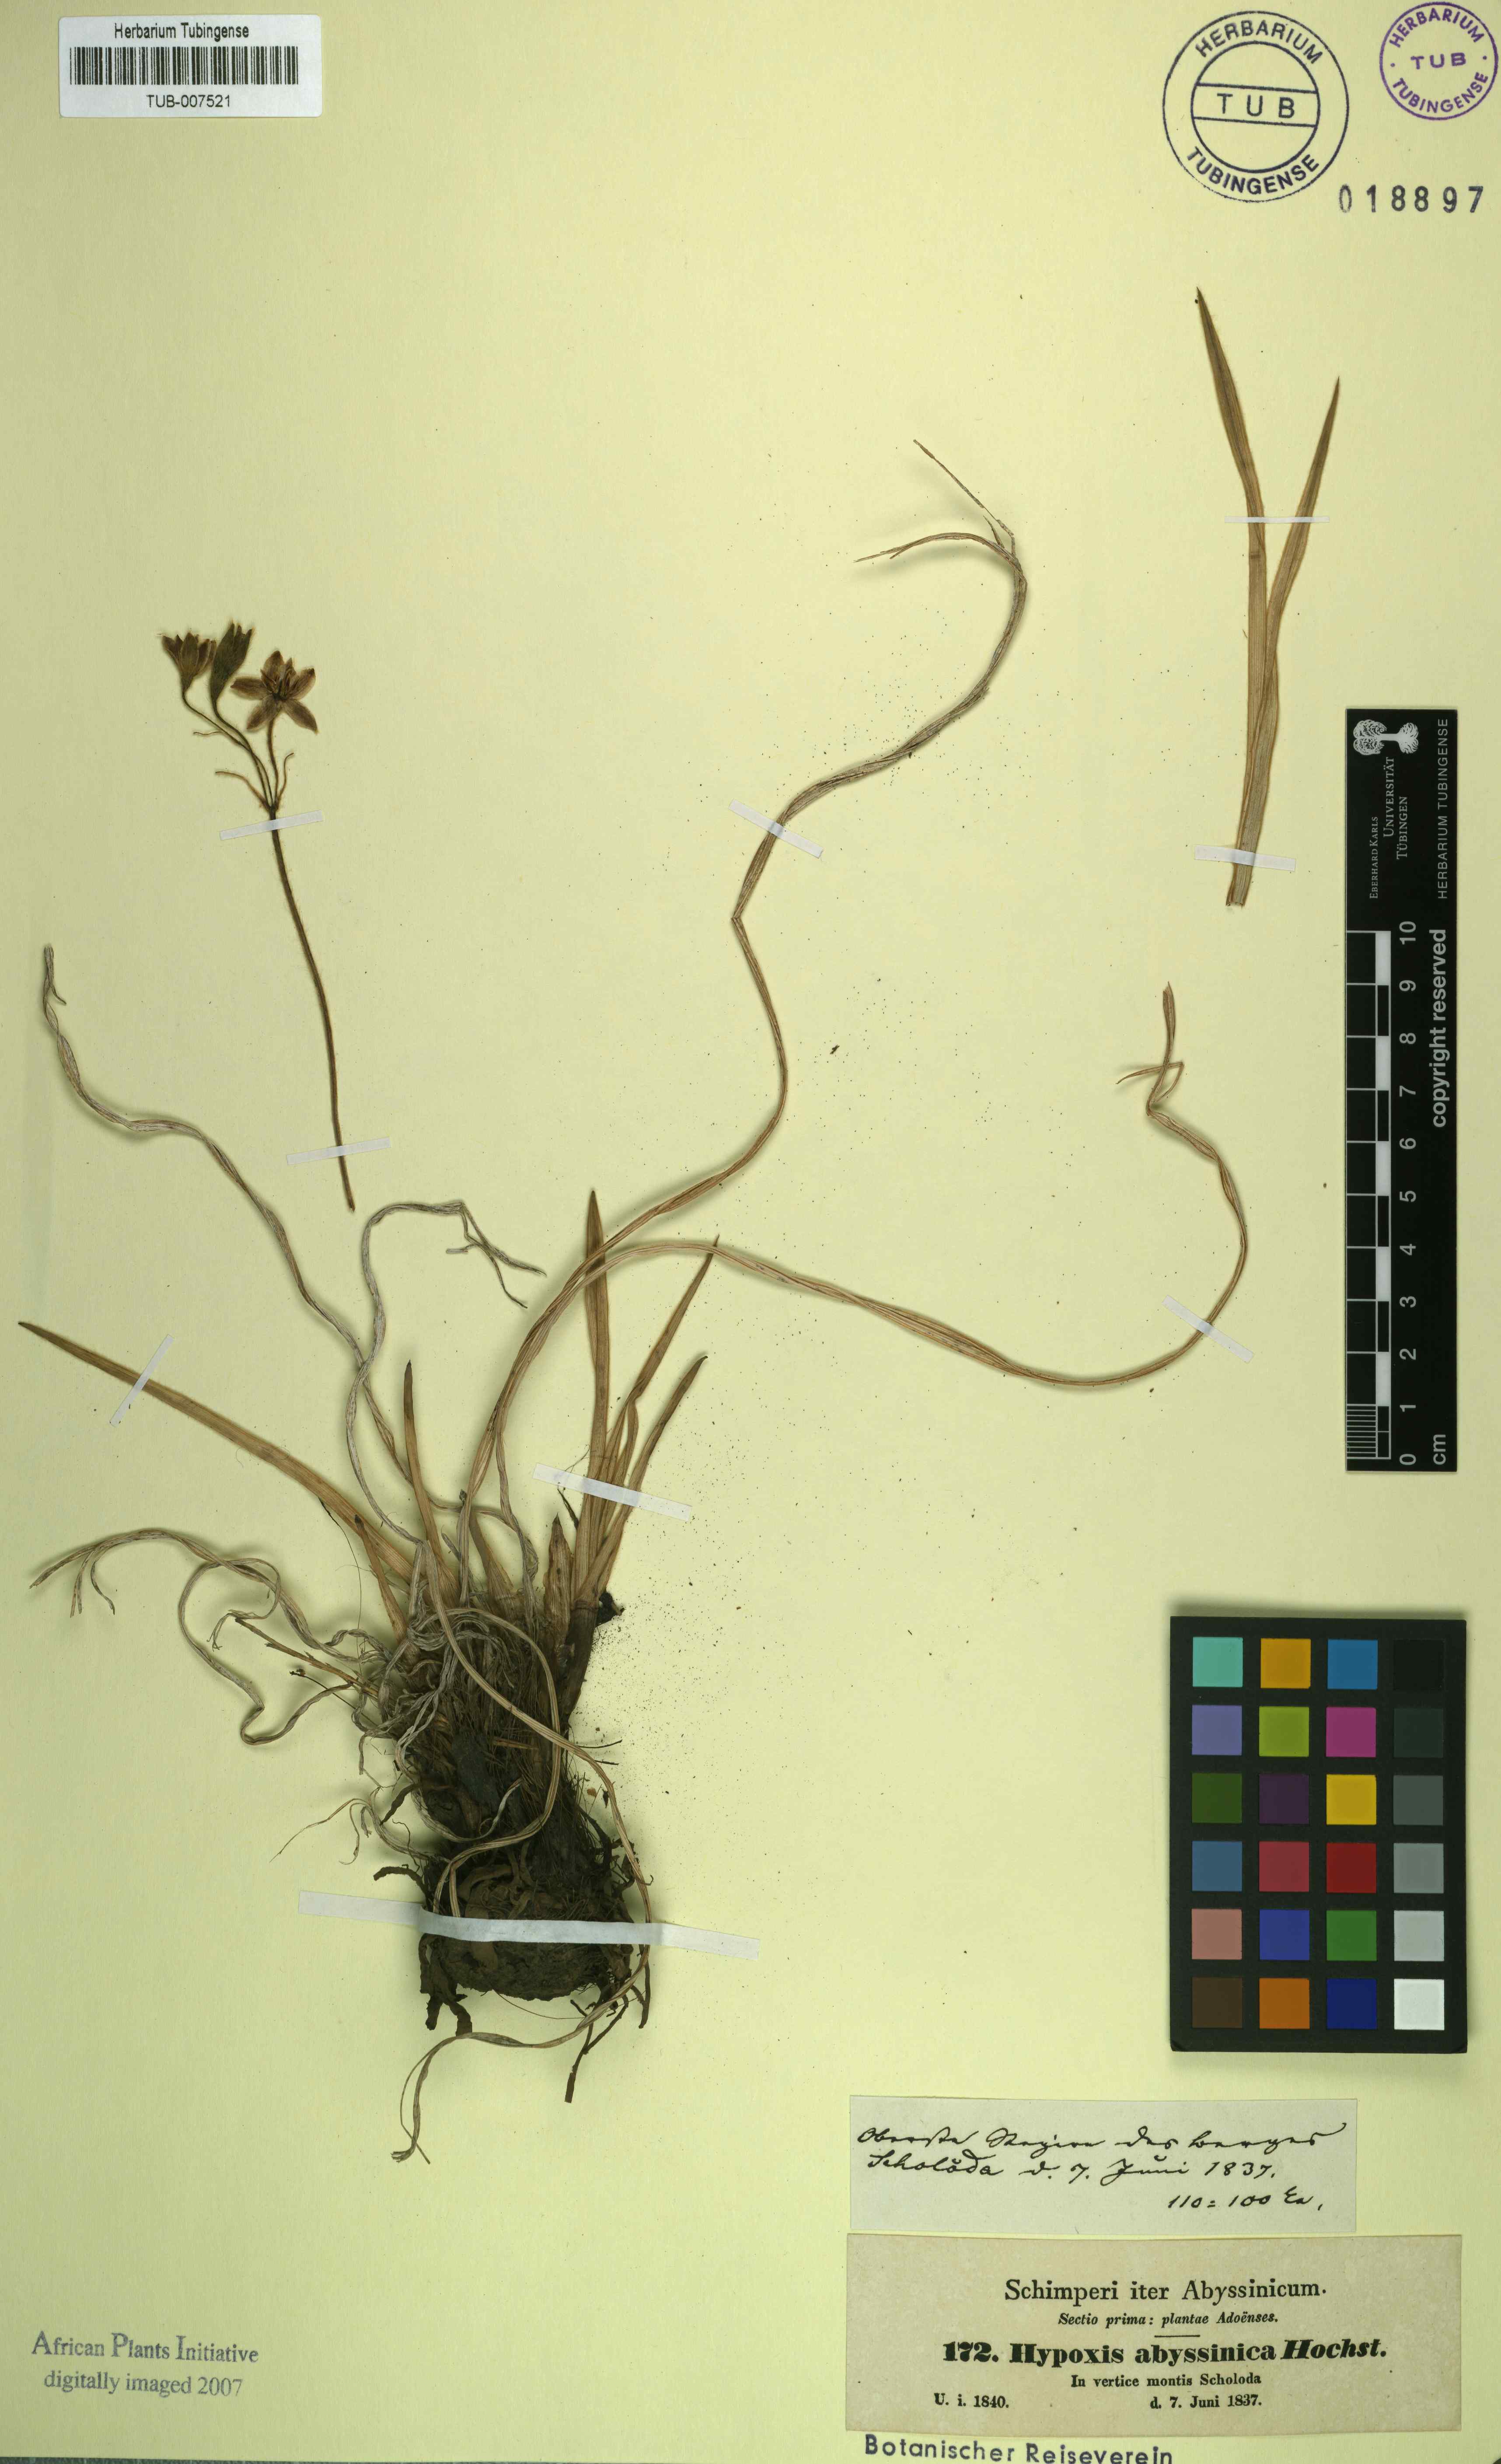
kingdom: Plantae
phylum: Tracheophyta
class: Liliopsida
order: Asparagales
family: Hypoxidaceae
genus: Hypoxis
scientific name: Hypoxis villosa
